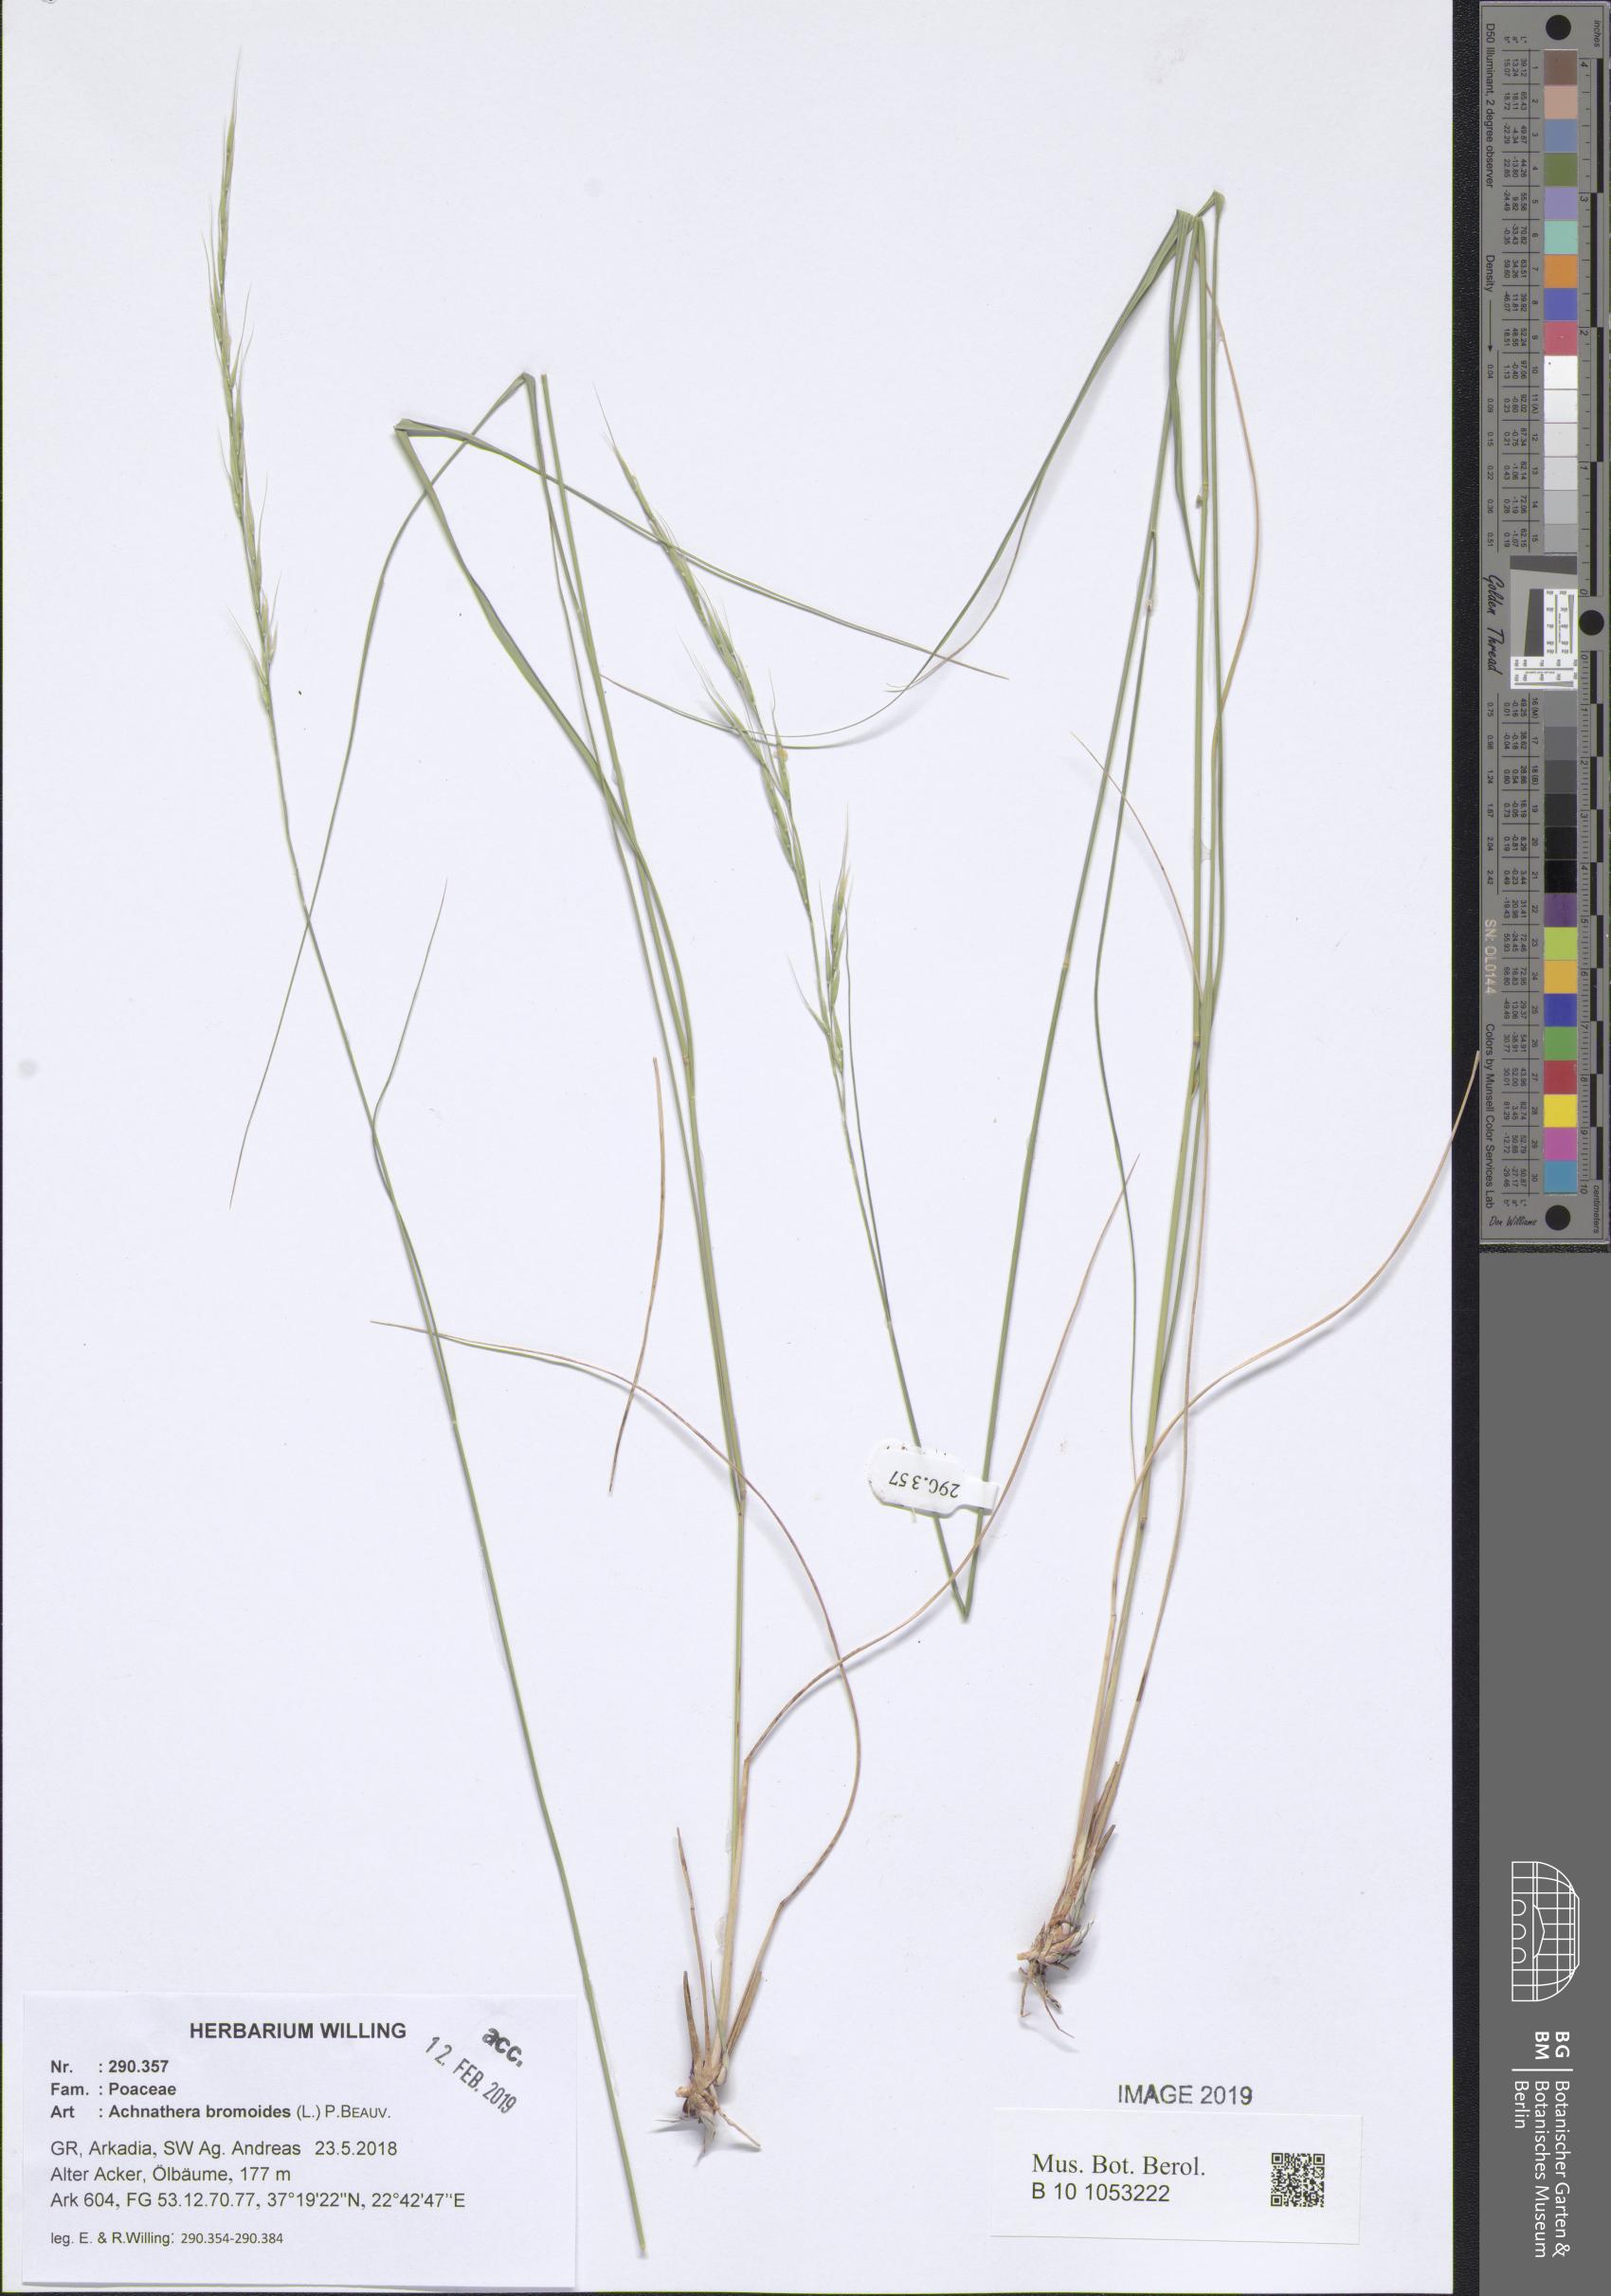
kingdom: Plantae
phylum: Tracheophyta
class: Liliopsida
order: Poales
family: Poaceae
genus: Achnatherum
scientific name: Achnatherum bromoides
